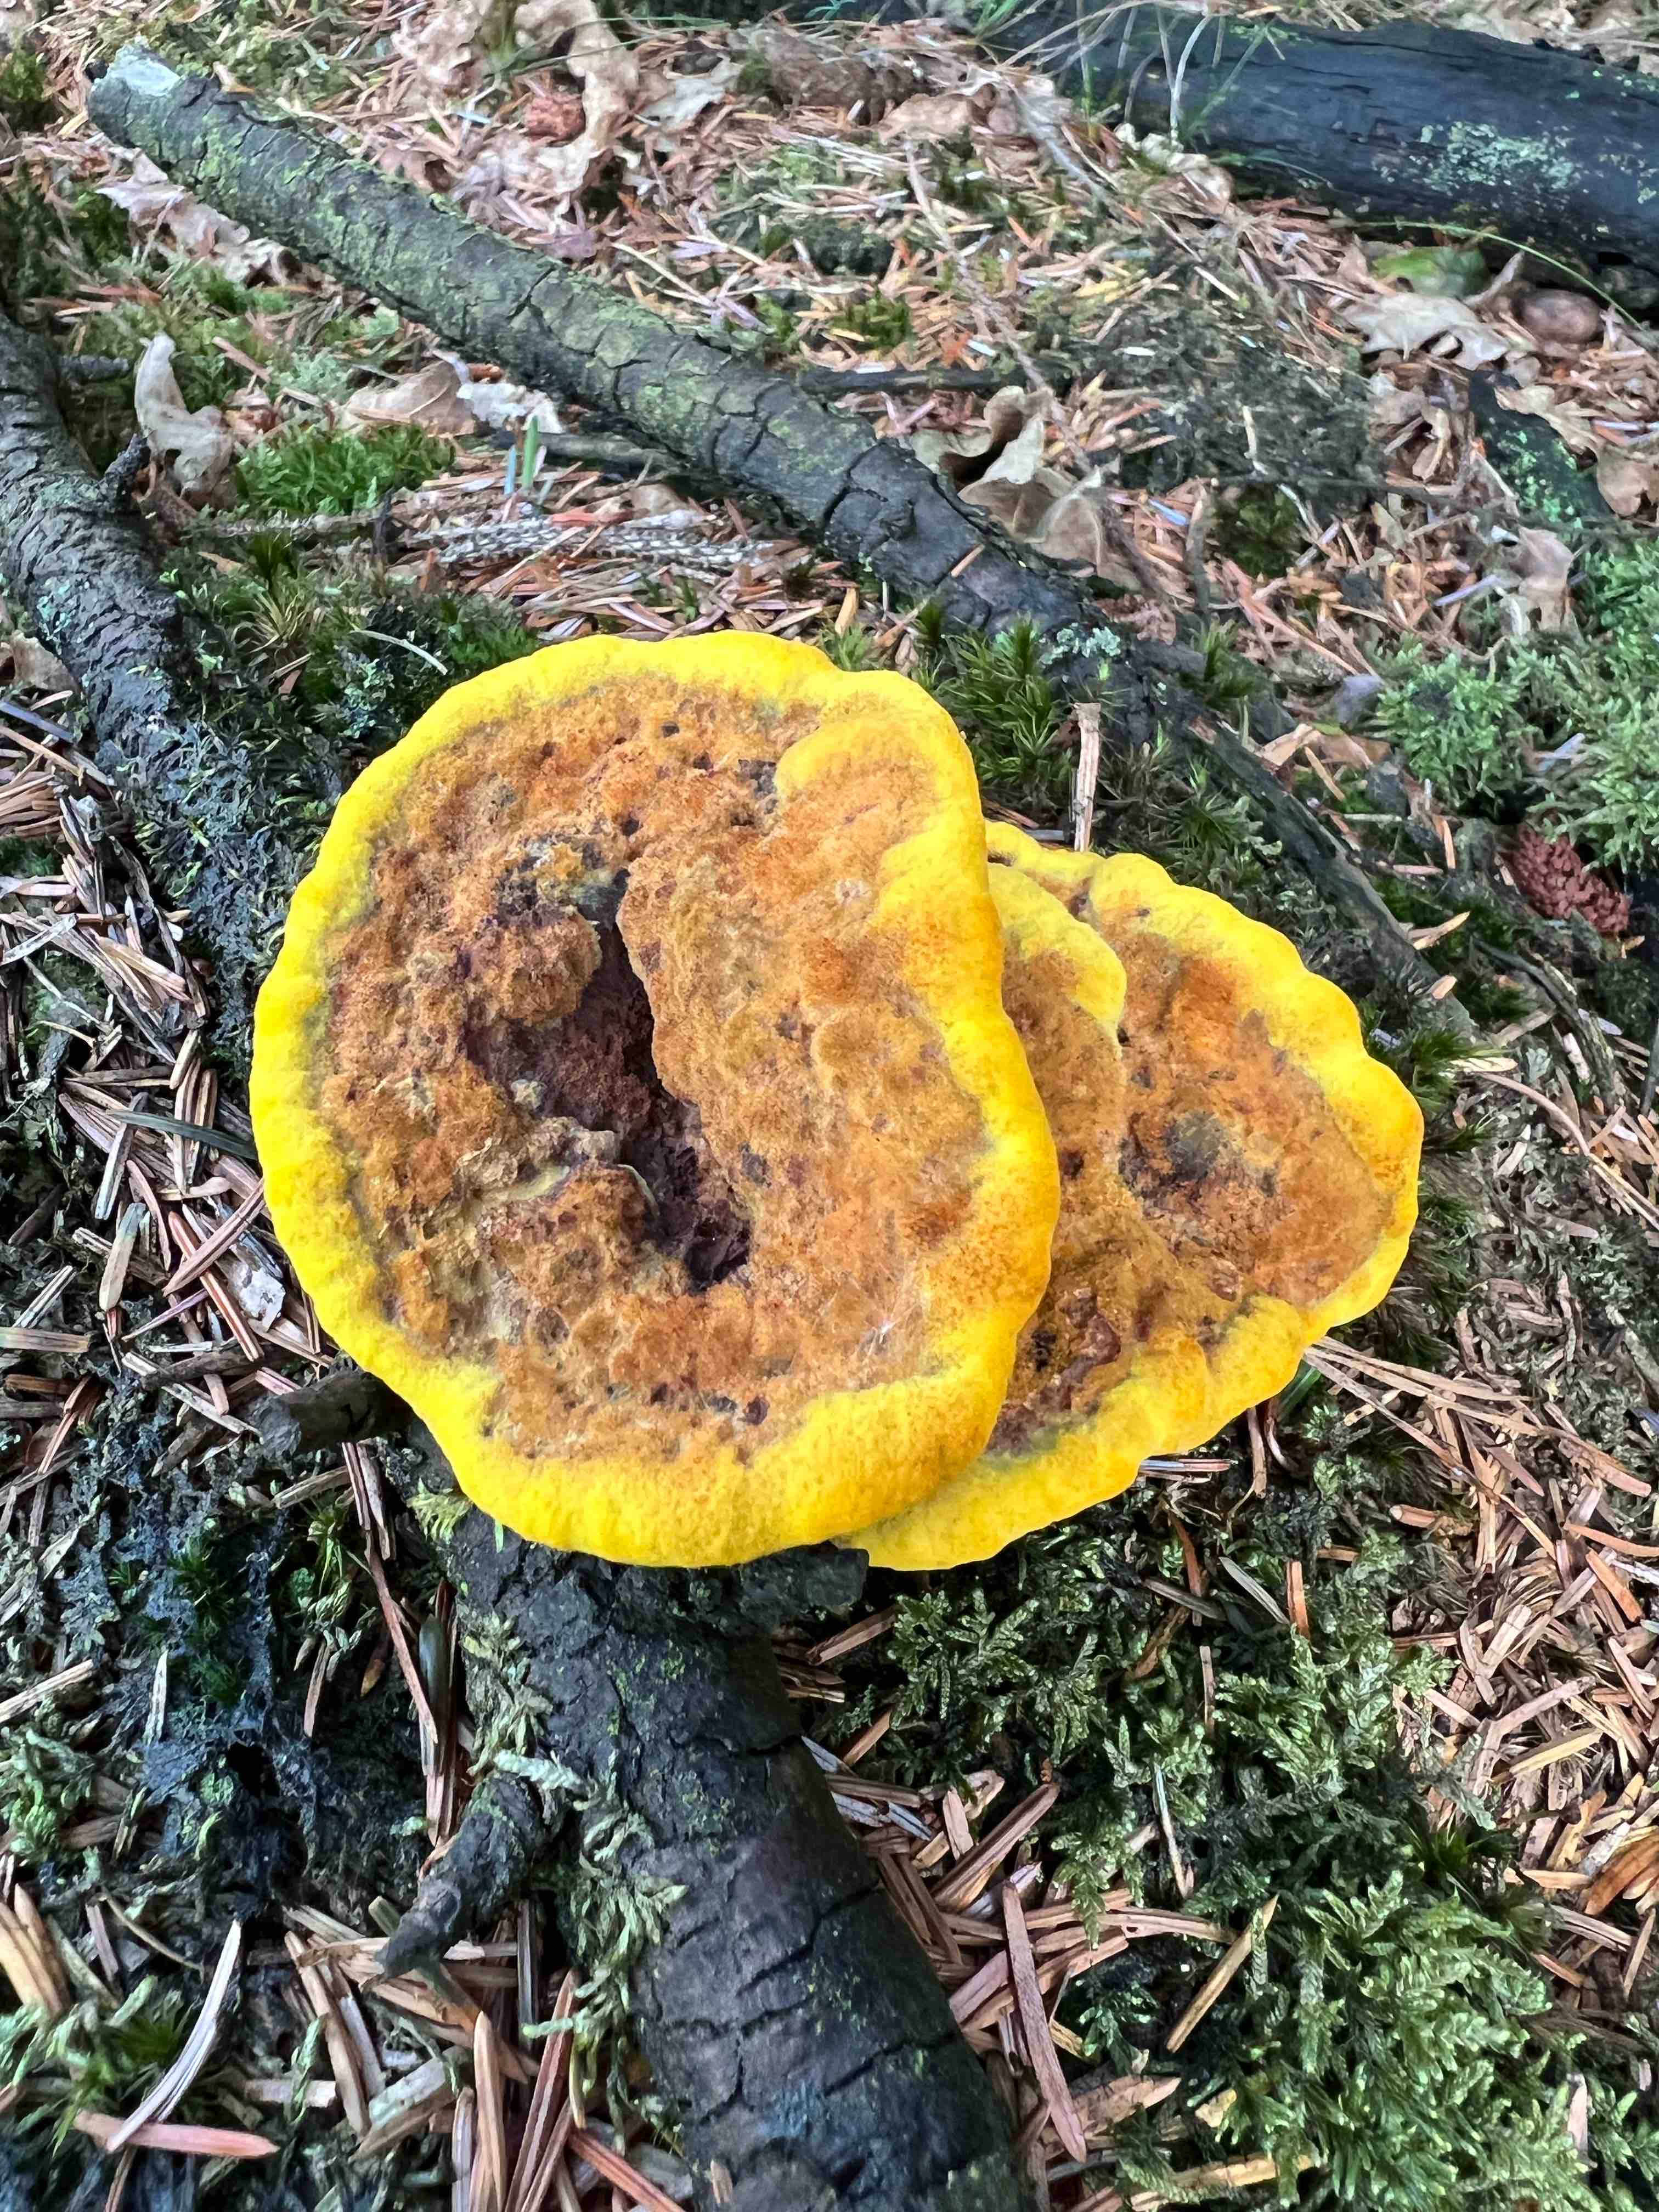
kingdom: Fungi
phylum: Basidiomycota
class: Agaricomycetes
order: Polyporales
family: Laetiporaceae
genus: Phaeolus
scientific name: Phaeolus schweinitzii
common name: brunporesvamp
